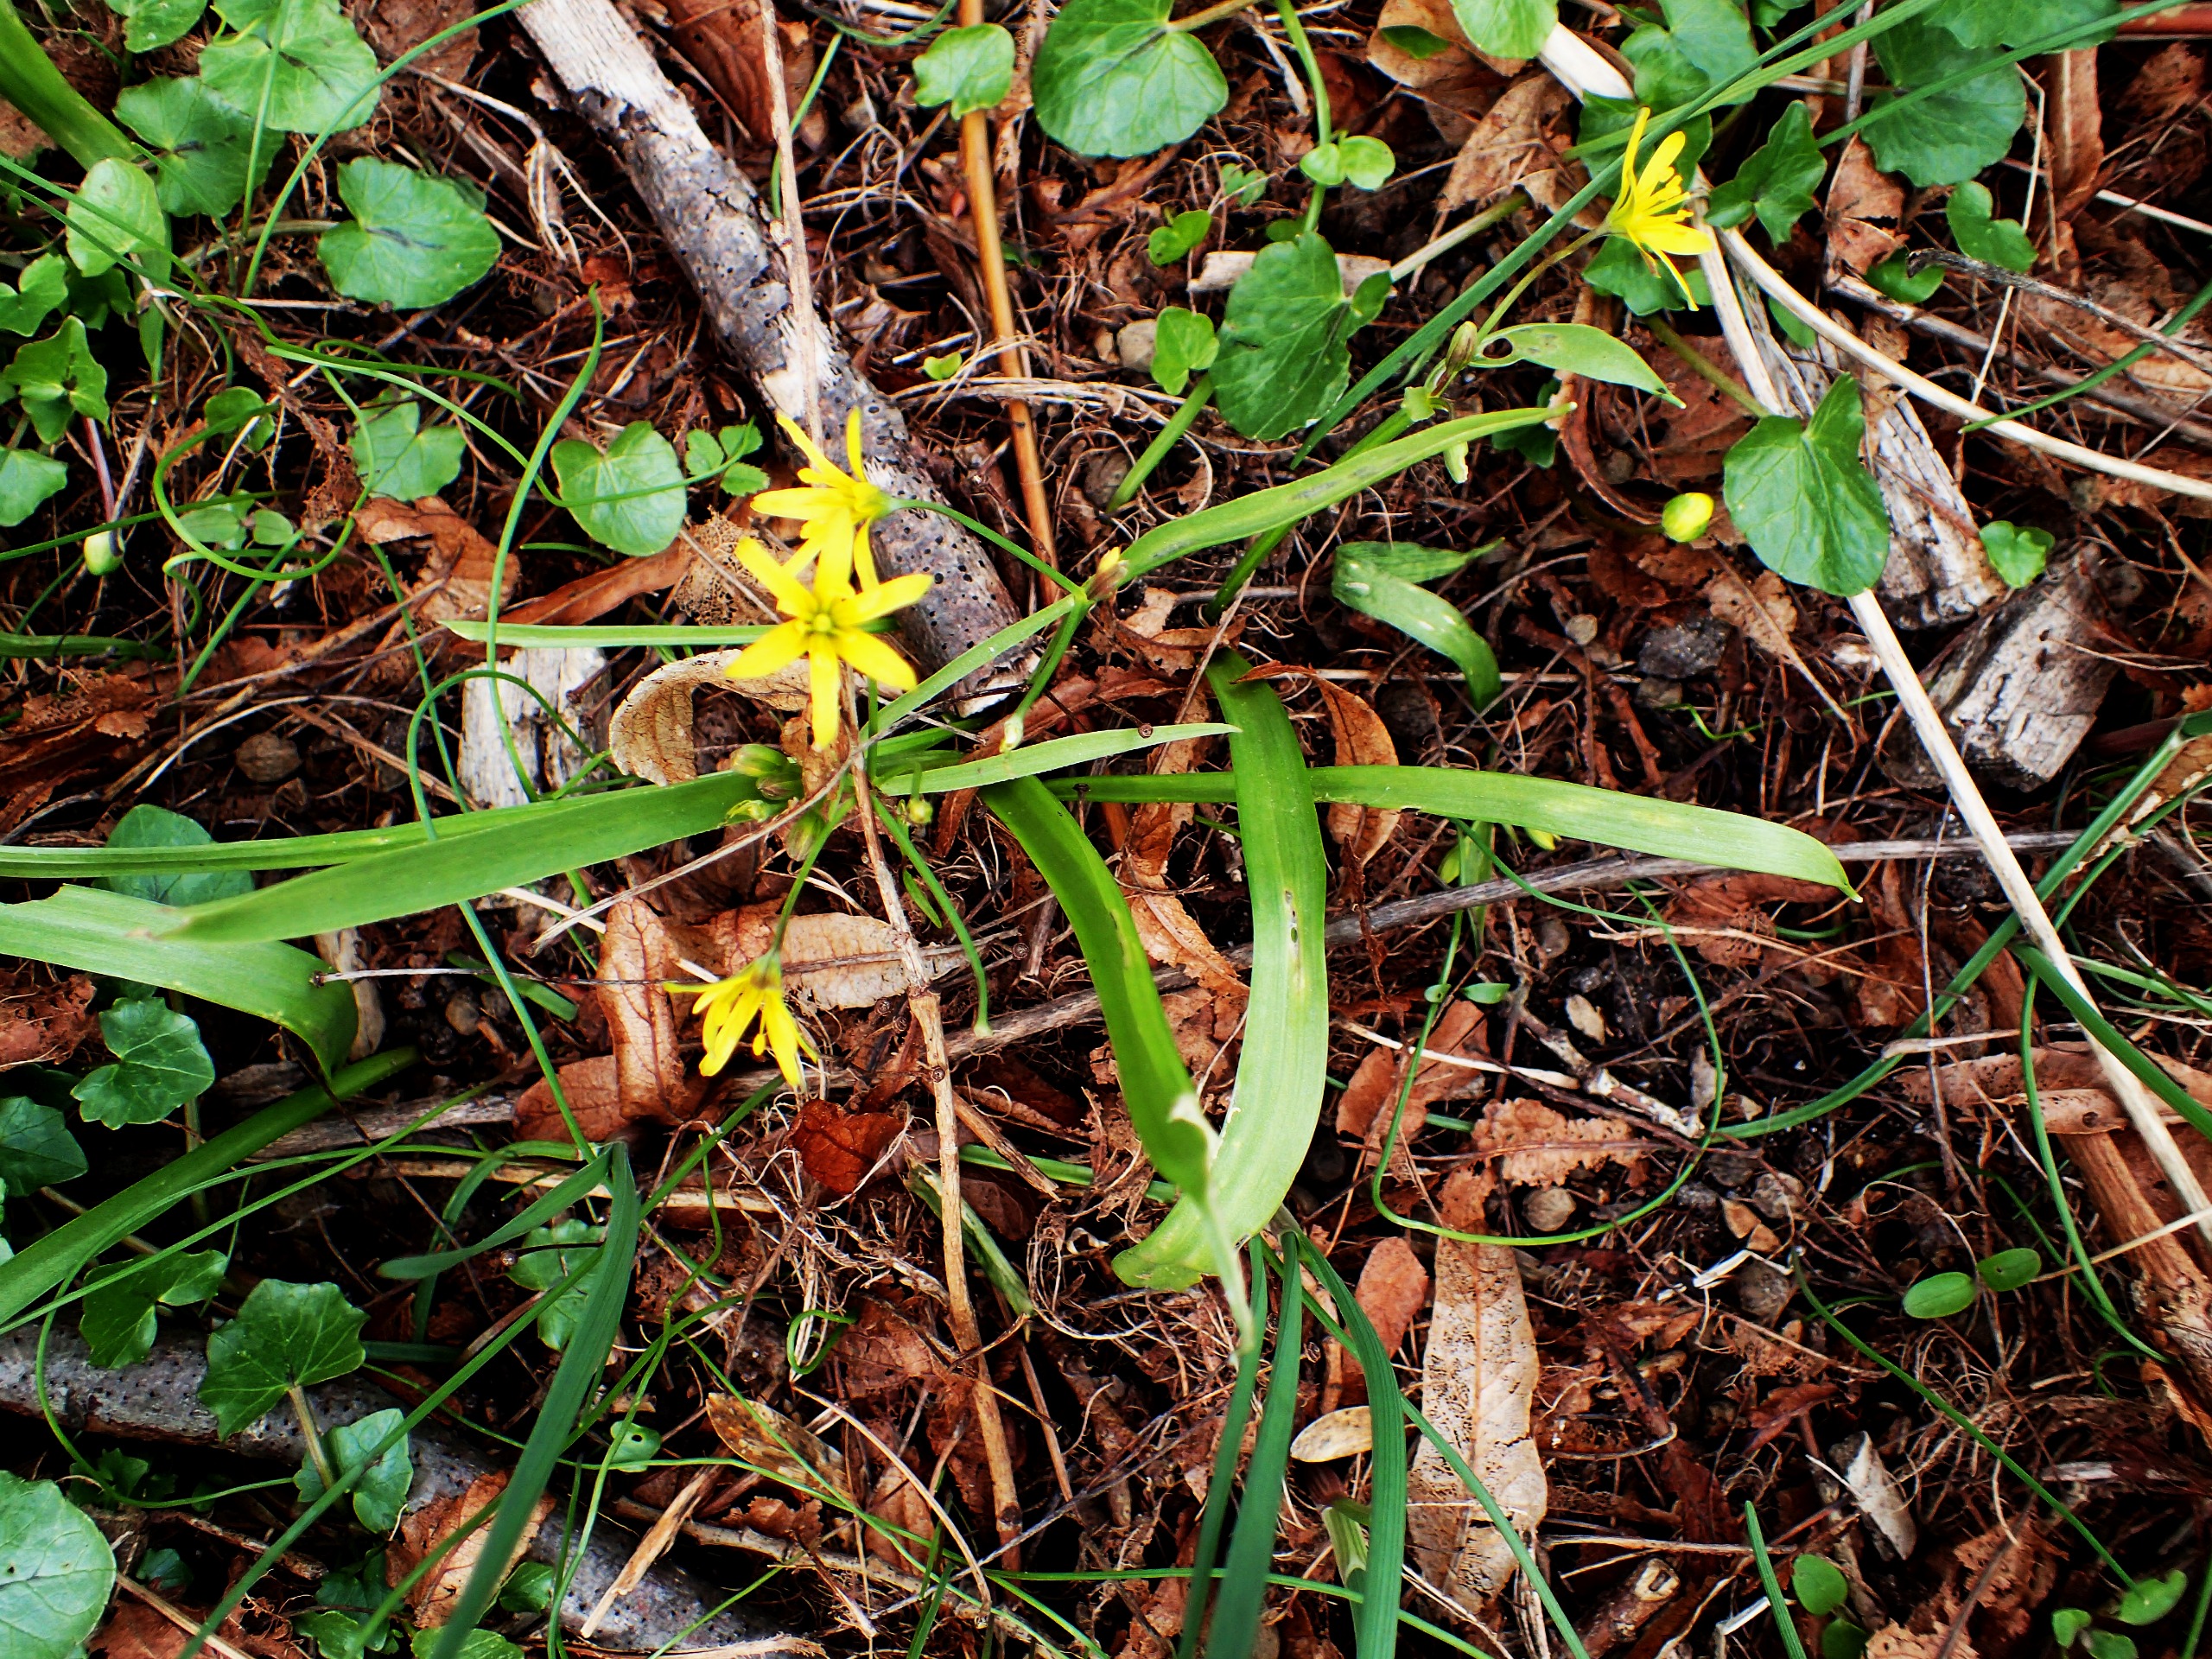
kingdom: Plantae
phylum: Tracheophyta
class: Liliopsida
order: Liliales
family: Liliaceae
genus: Gagea
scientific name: Gagea lutea
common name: Almindelig guldstjerne
